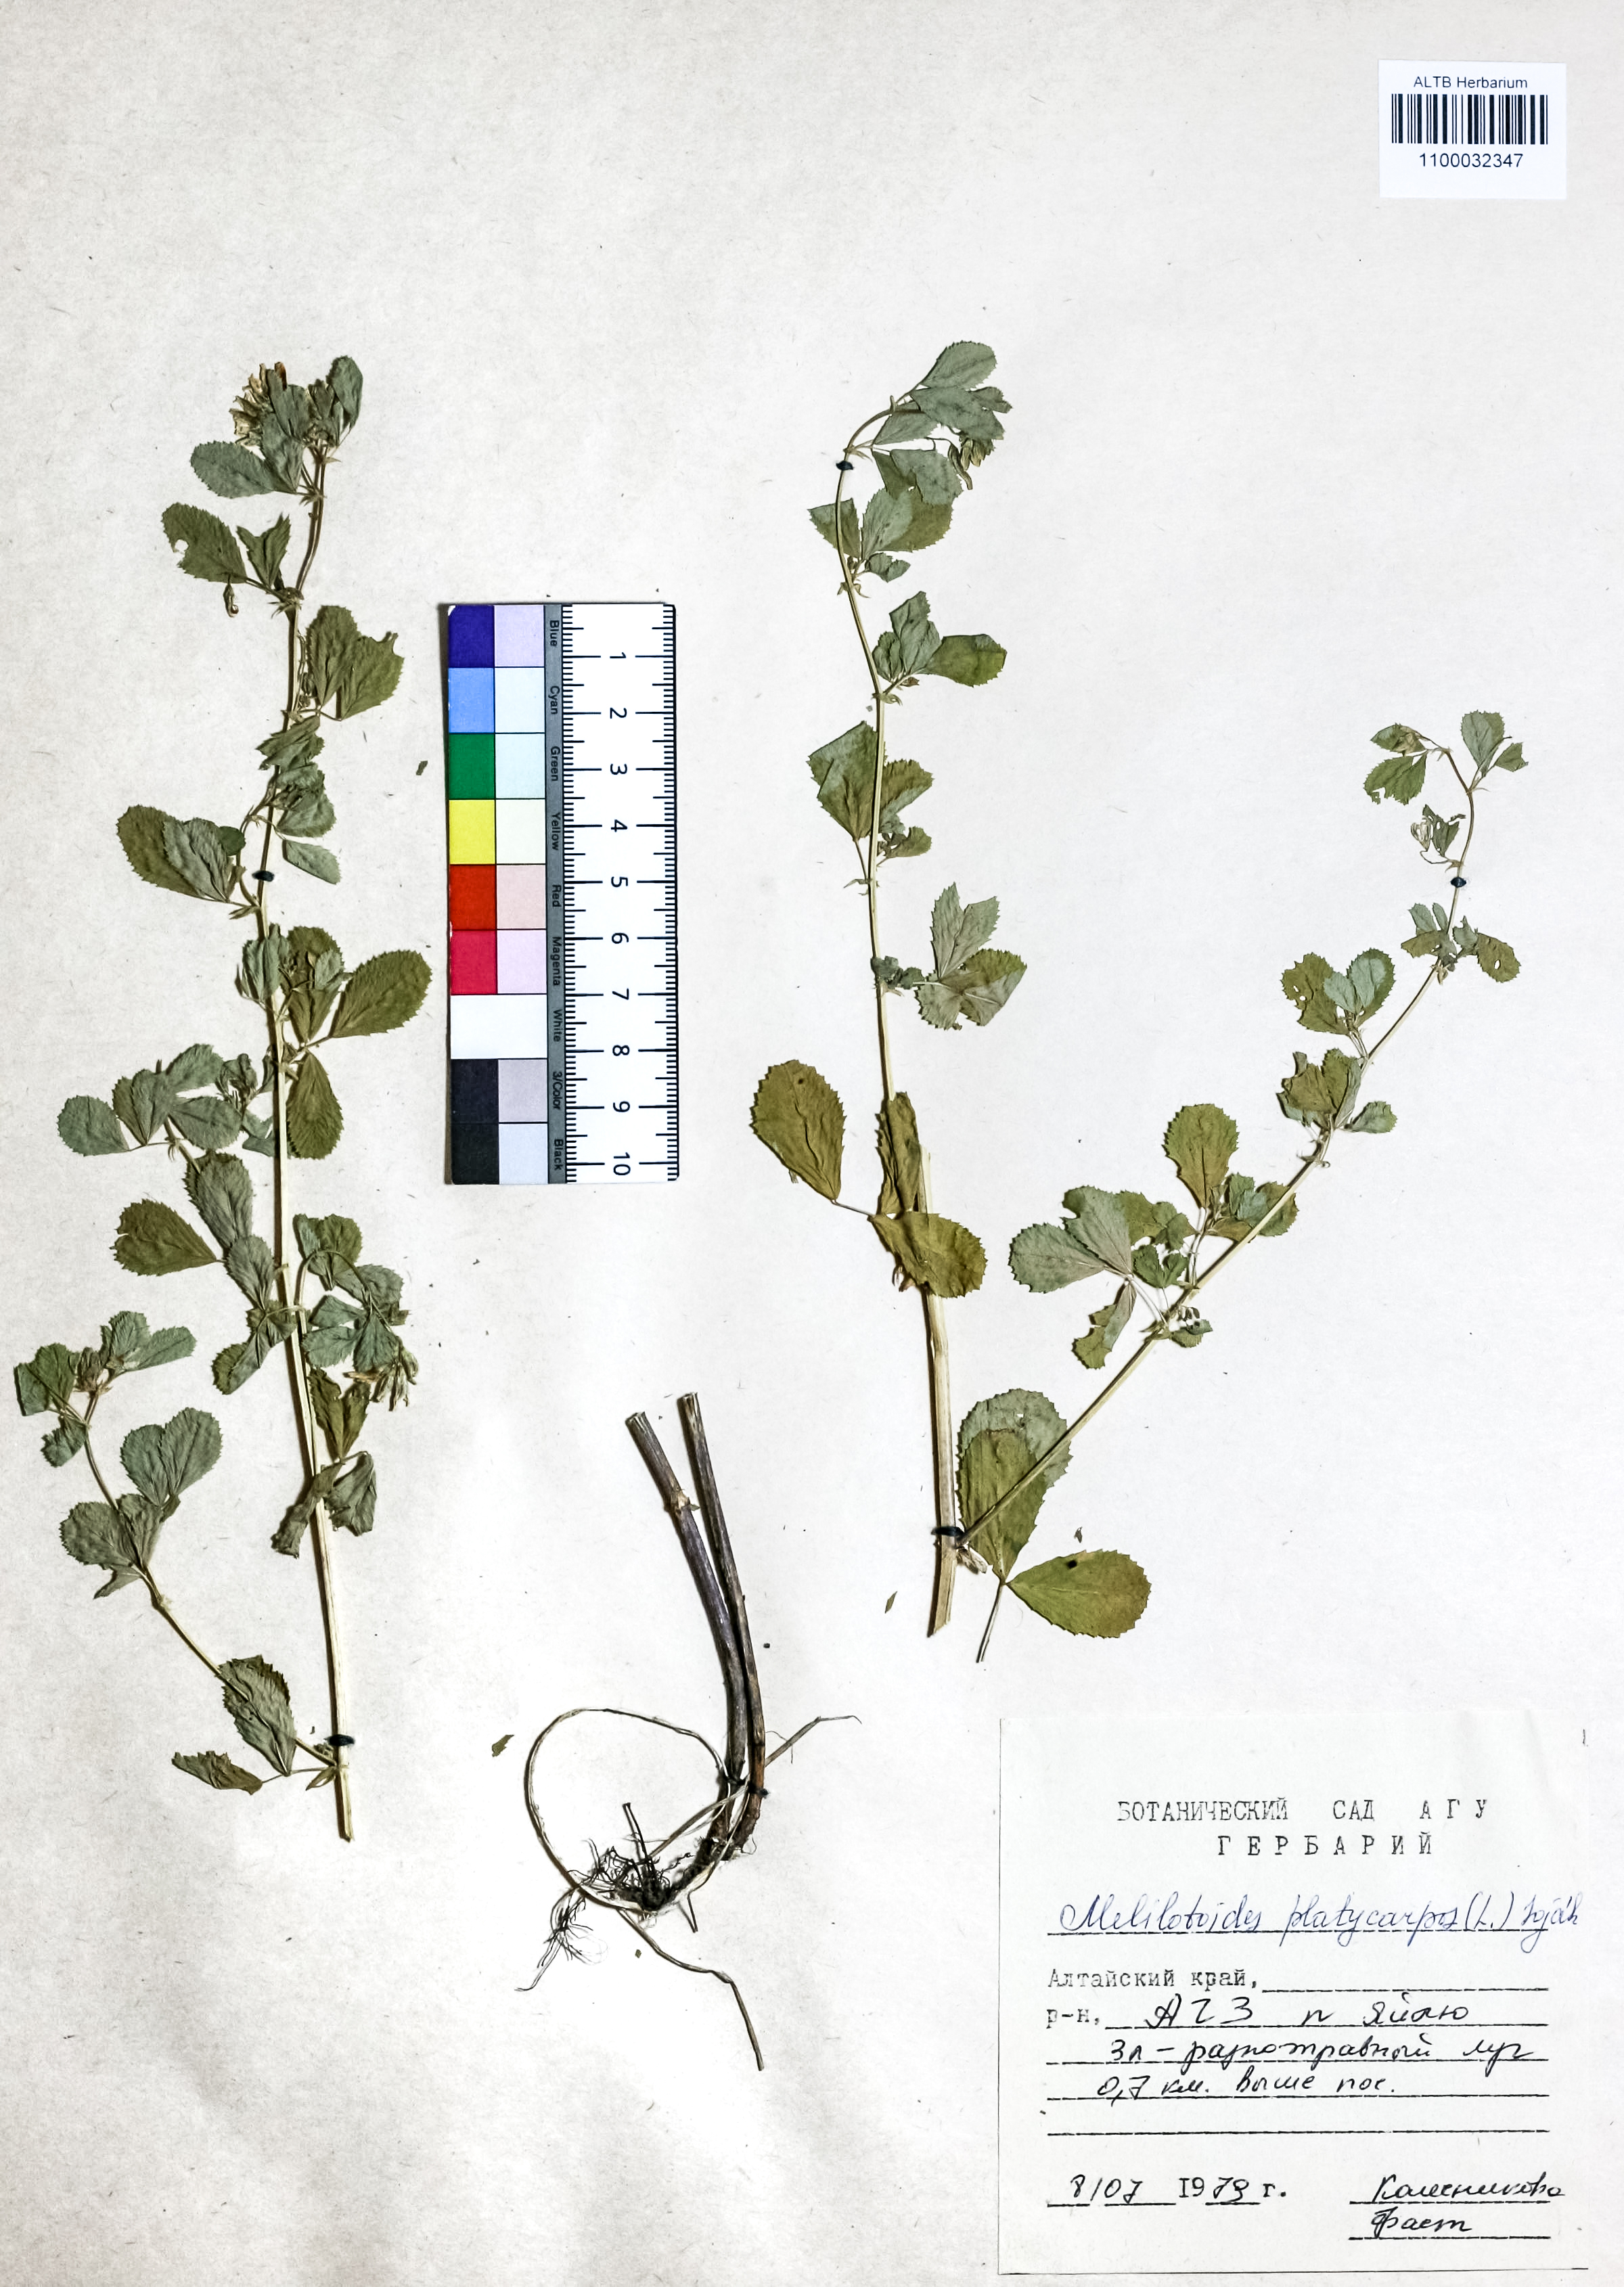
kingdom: Plantae
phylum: Tracheophyta
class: Magnoliopsida
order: Fabales
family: Fabaceae
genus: Medicago
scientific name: Medicago platycarpos
